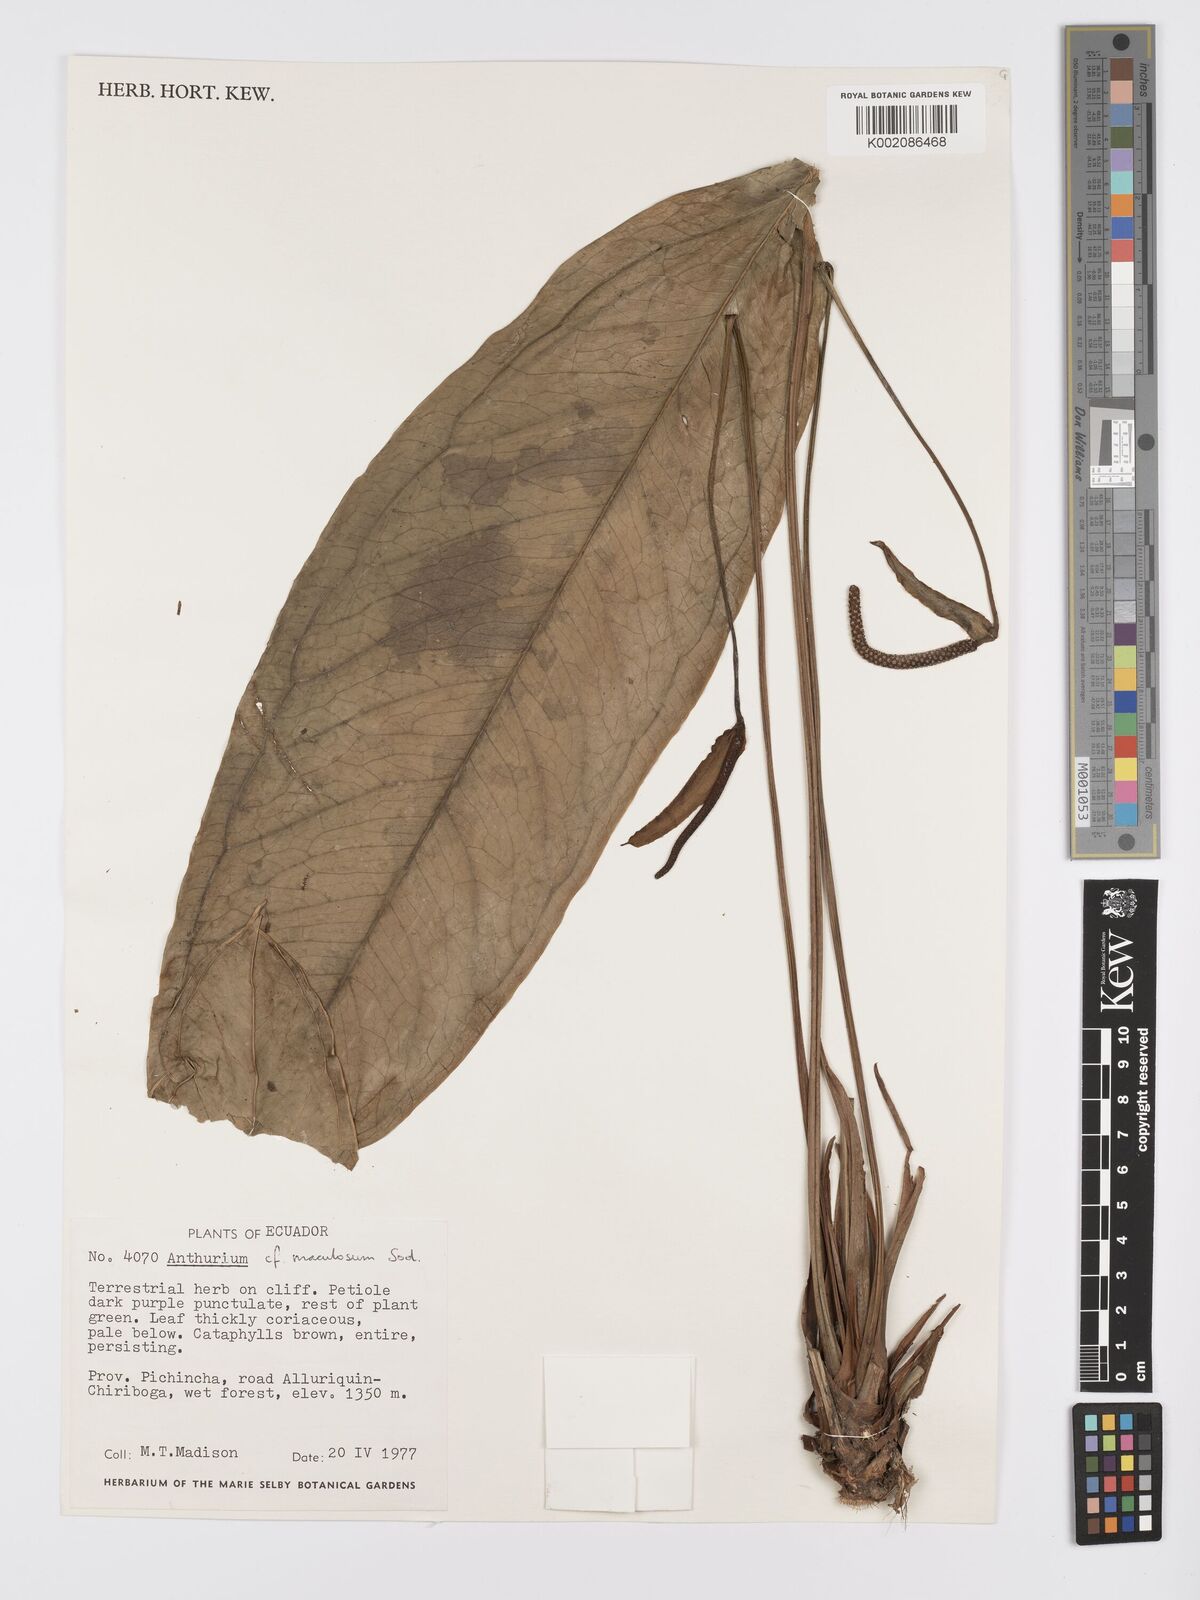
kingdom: Plantae
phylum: Tracheophyta
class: Liliopsida
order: Alismatales
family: Araceae
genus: Anthurium
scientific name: Anthurium maculosum
